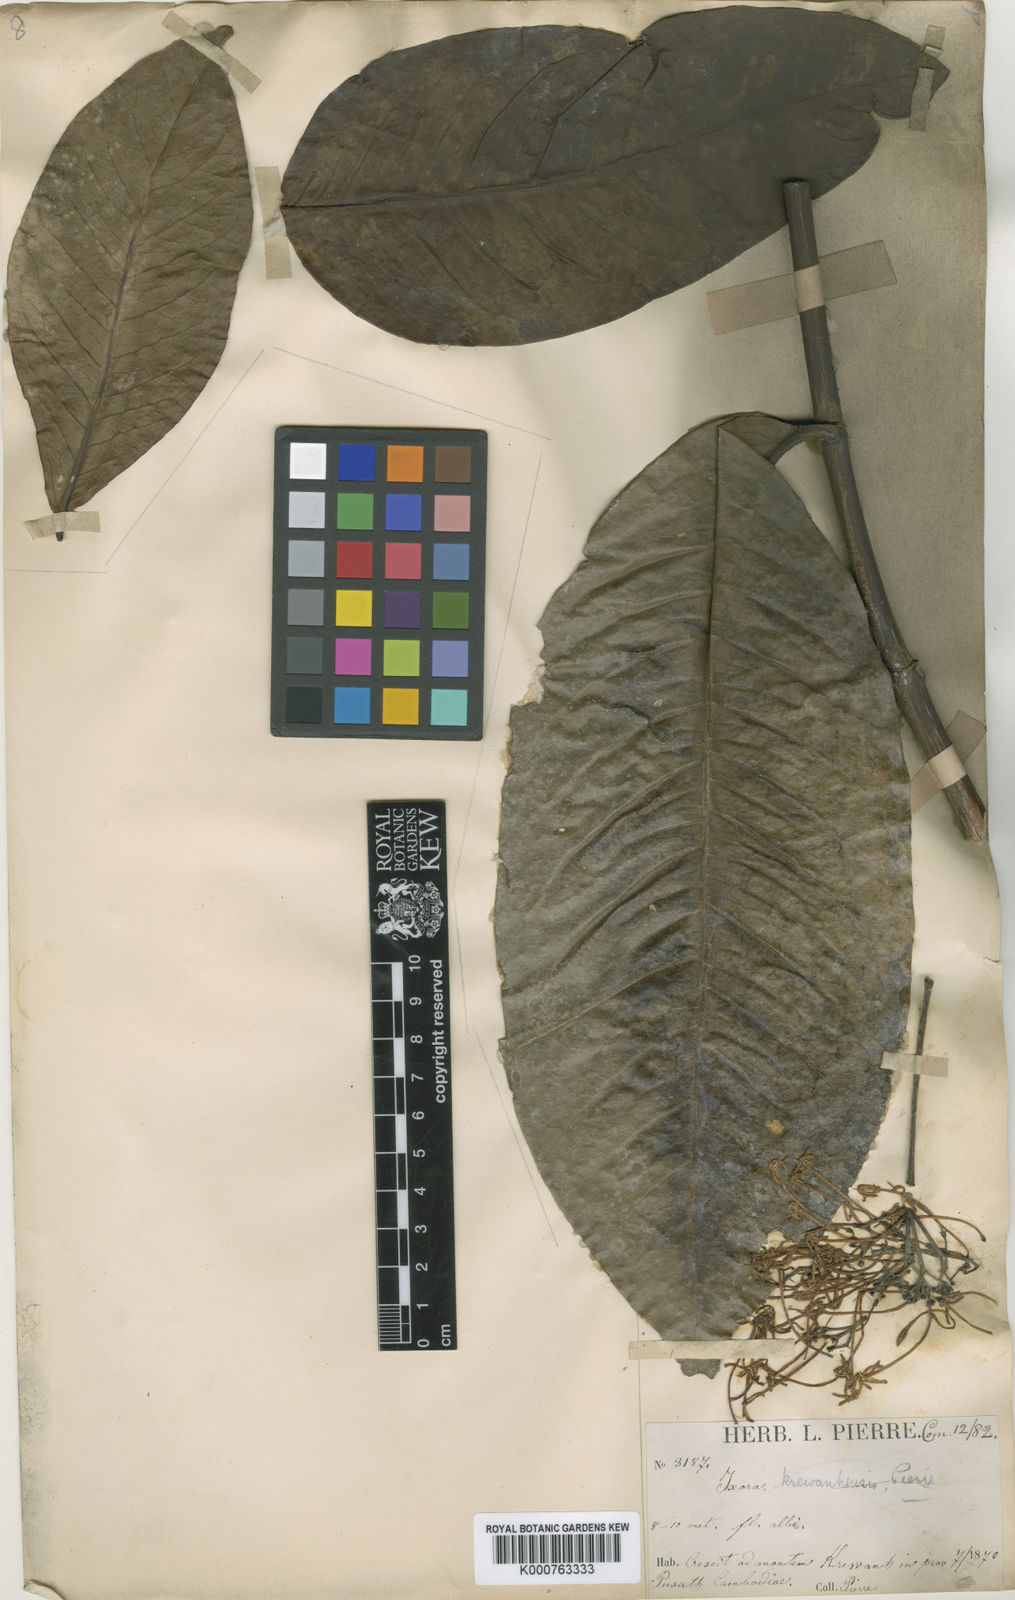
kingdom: Plantae
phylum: Tracheophyta
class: Magnoliopsida
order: Gentianales
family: Rubiaceae
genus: Ixora
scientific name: Ixora krewanhensis
